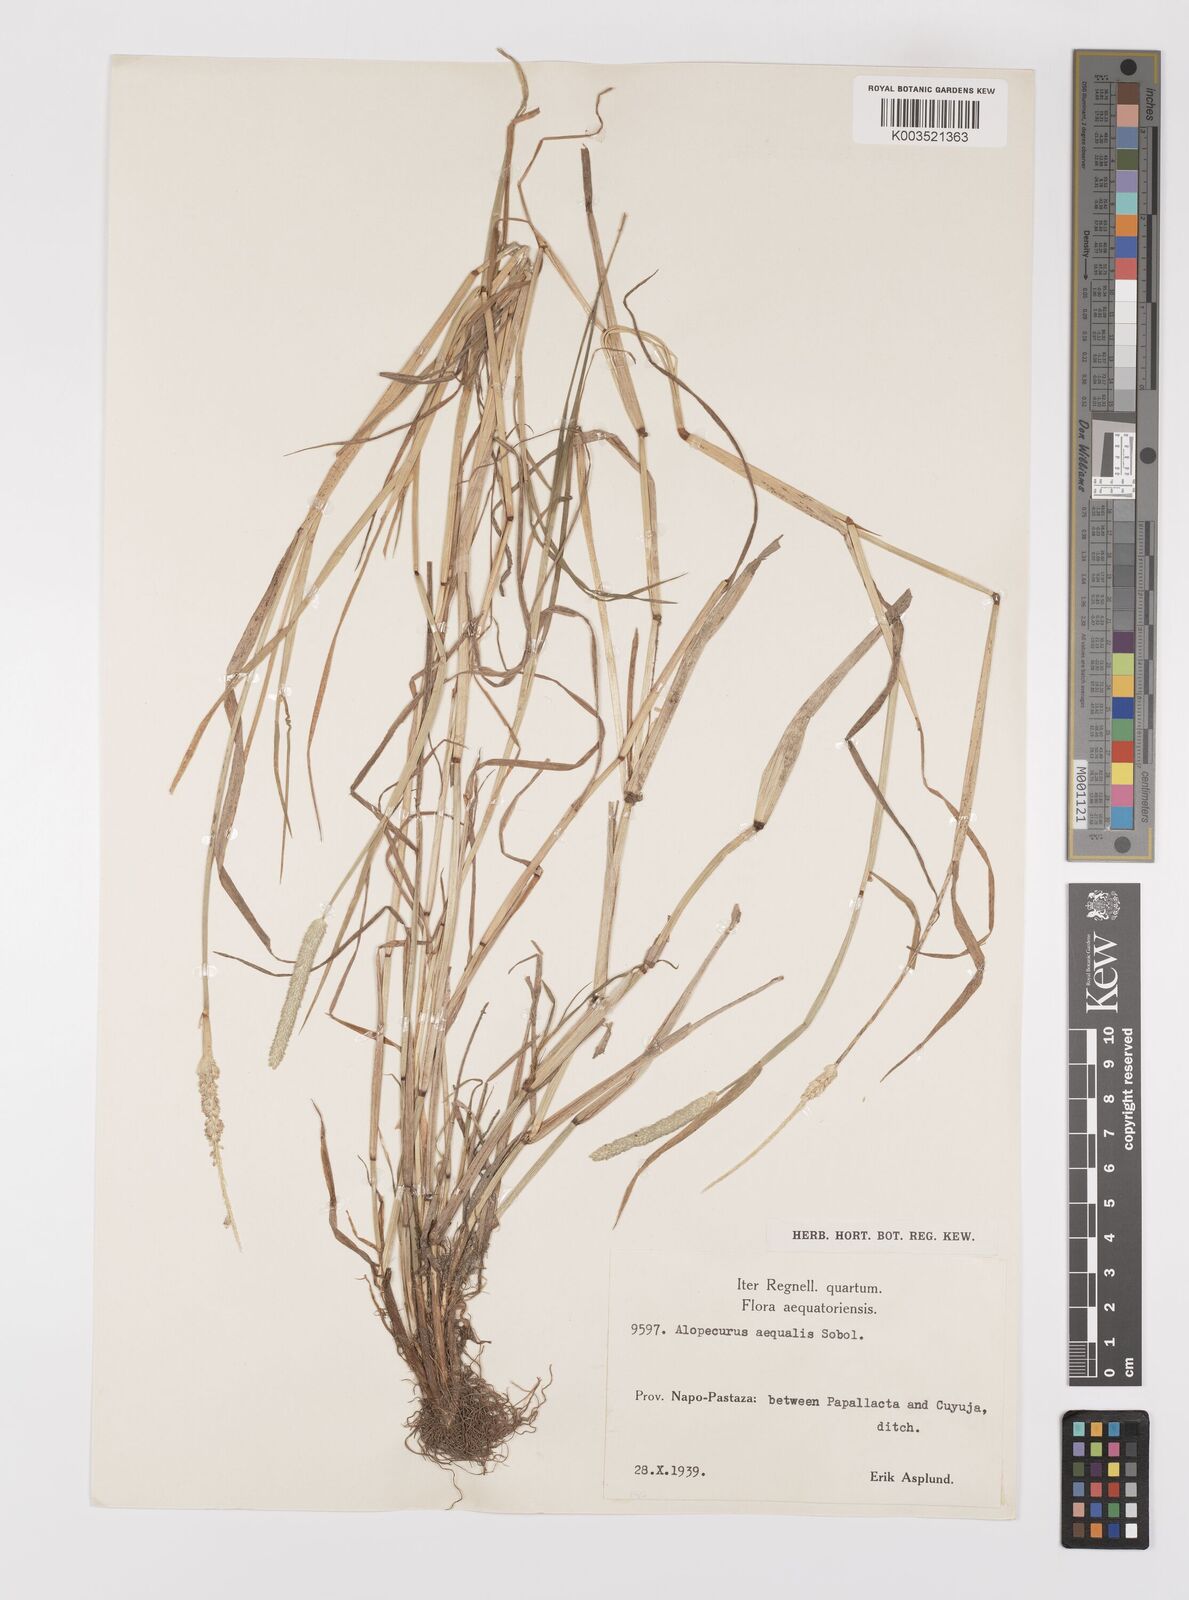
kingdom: Plantae
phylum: Tracheophyta
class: Liliopsida
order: Poales
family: Poaceae
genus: Alopecurus
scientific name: Alopecurus aequalis
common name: Orange foxtail
